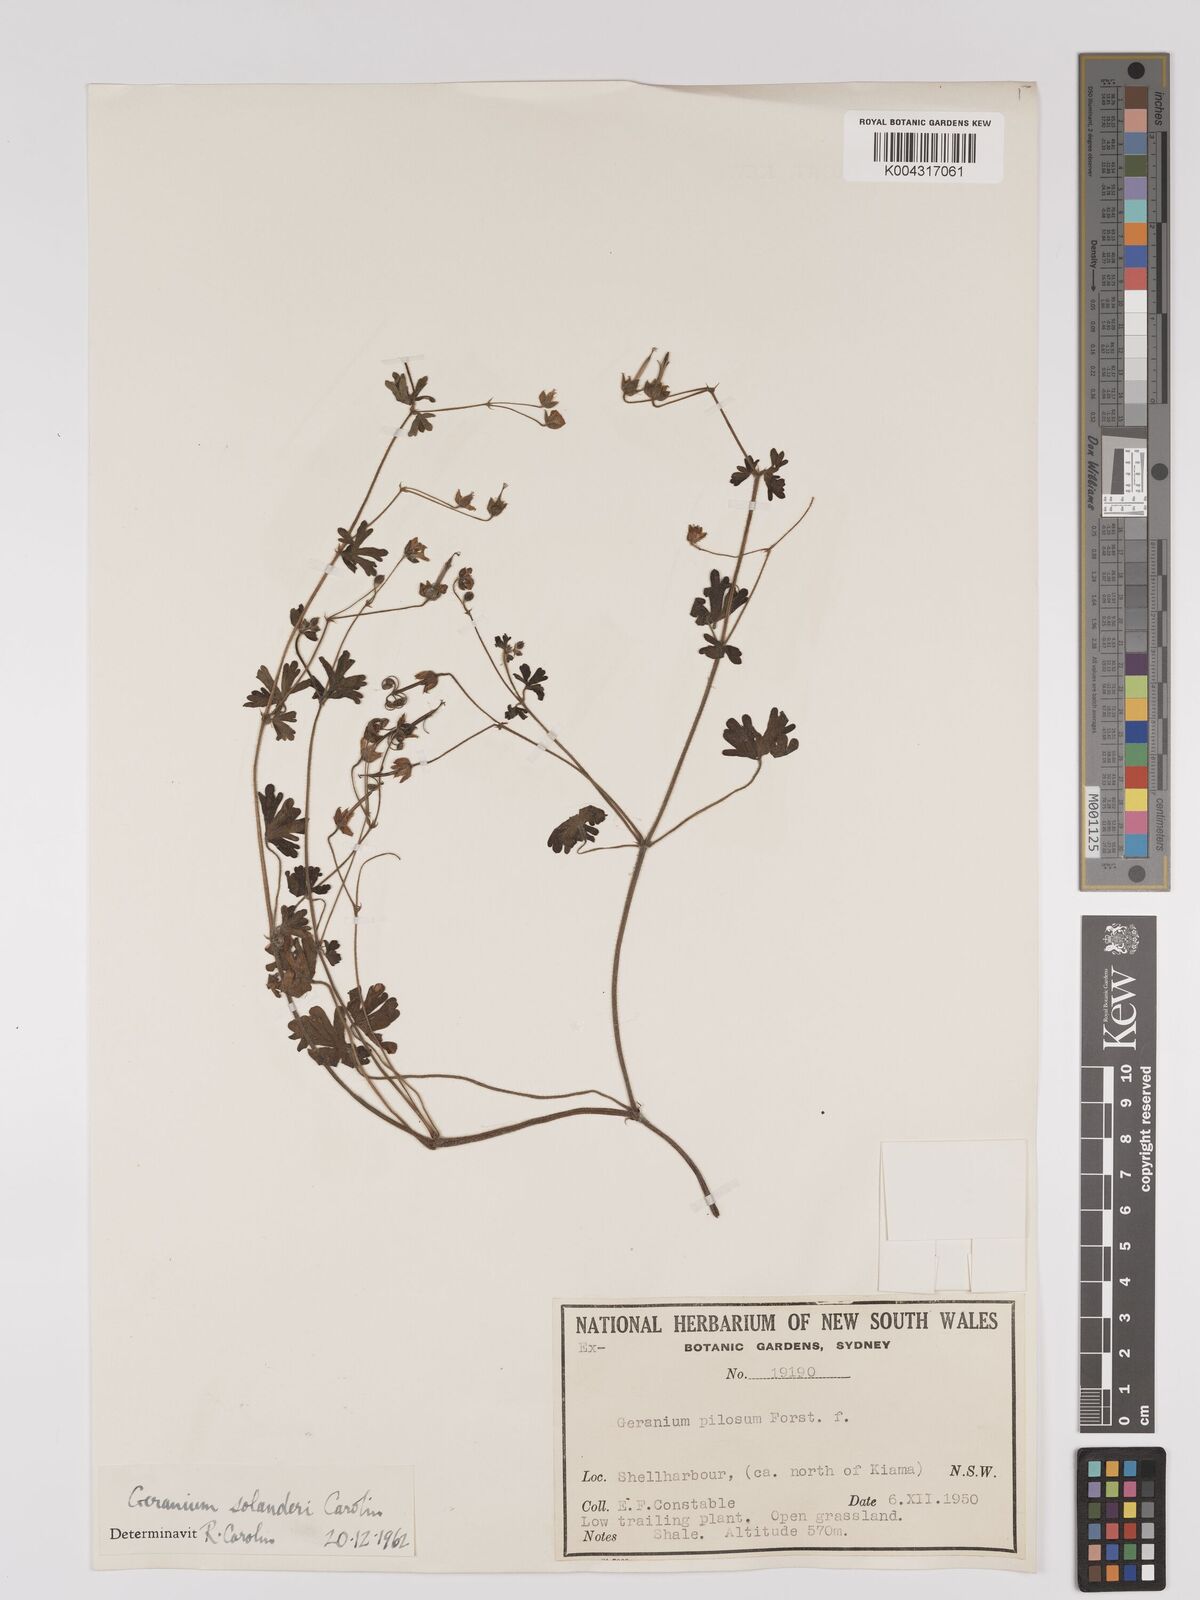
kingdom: Plantae
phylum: Tracheophyta
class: Magnoliopsida
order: Geraniales
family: Geraniaceae
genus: Geranium
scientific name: Geranium solanderi
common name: Solander's geranium
